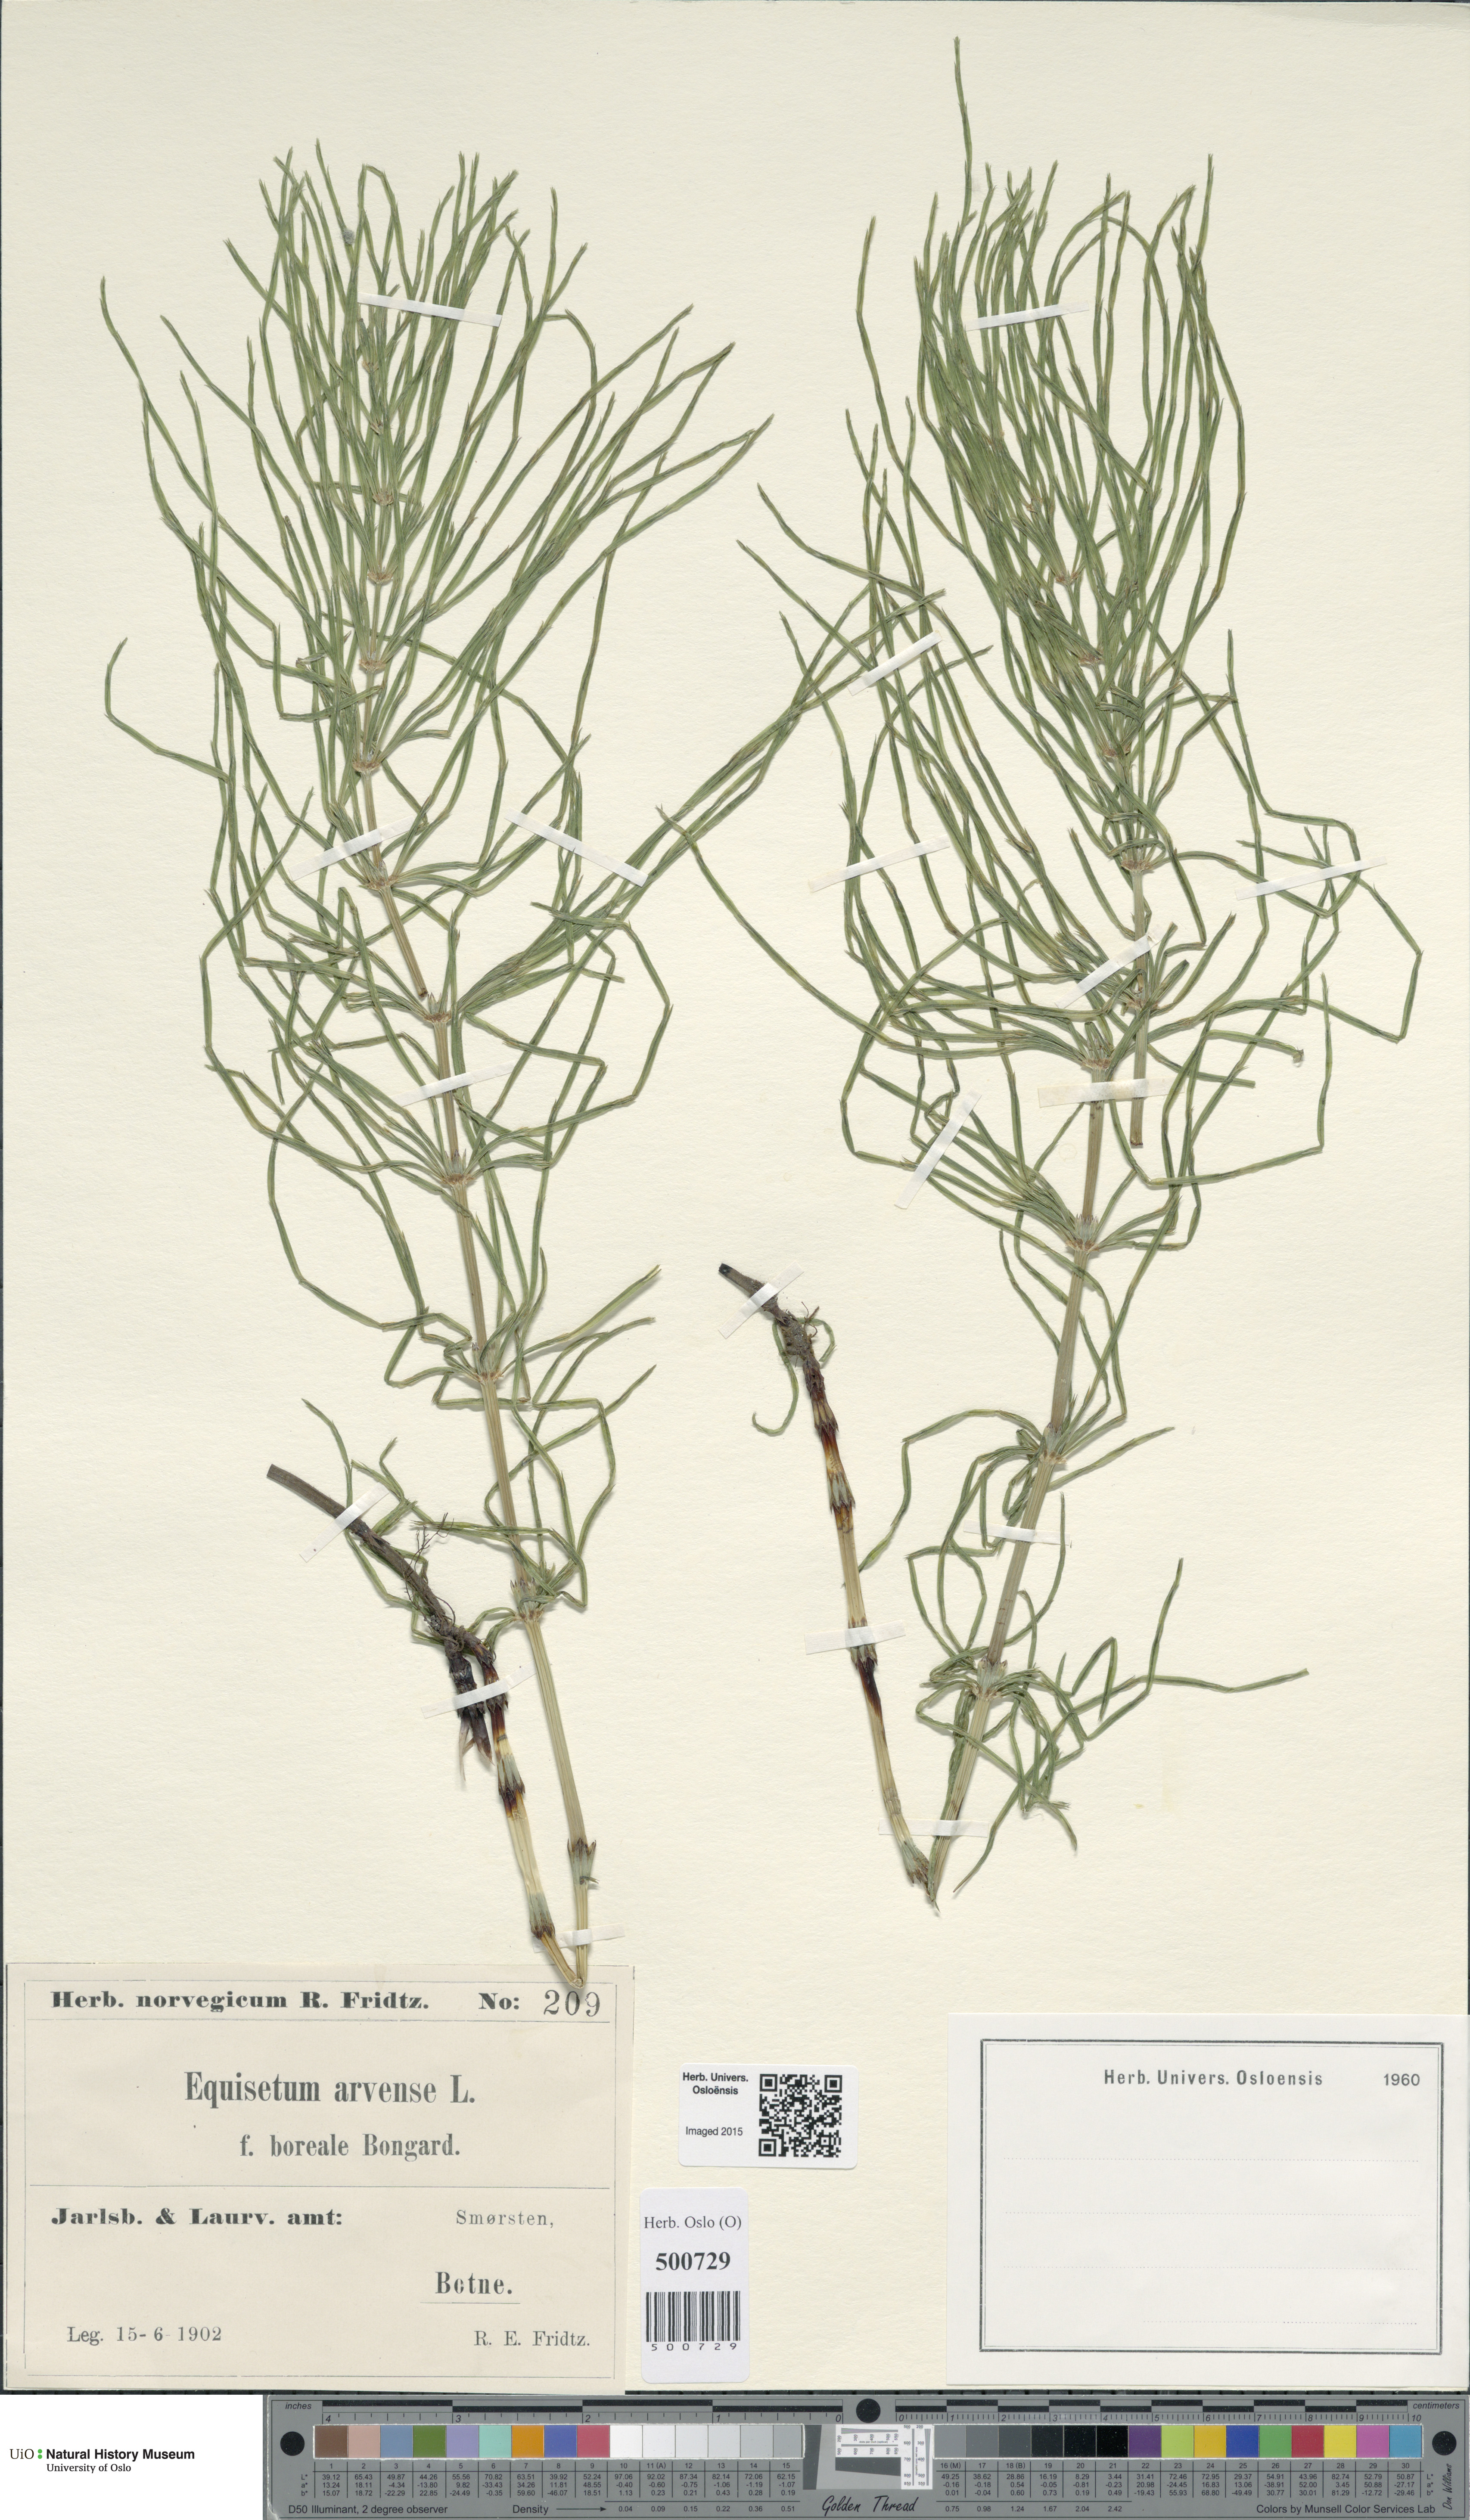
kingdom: Plantae
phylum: Tracheophyta
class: Polypodiopsida
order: Equisetales
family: Equisetaceae
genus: Equisetum
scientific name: Equisetum arvense
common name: Field horsetail
